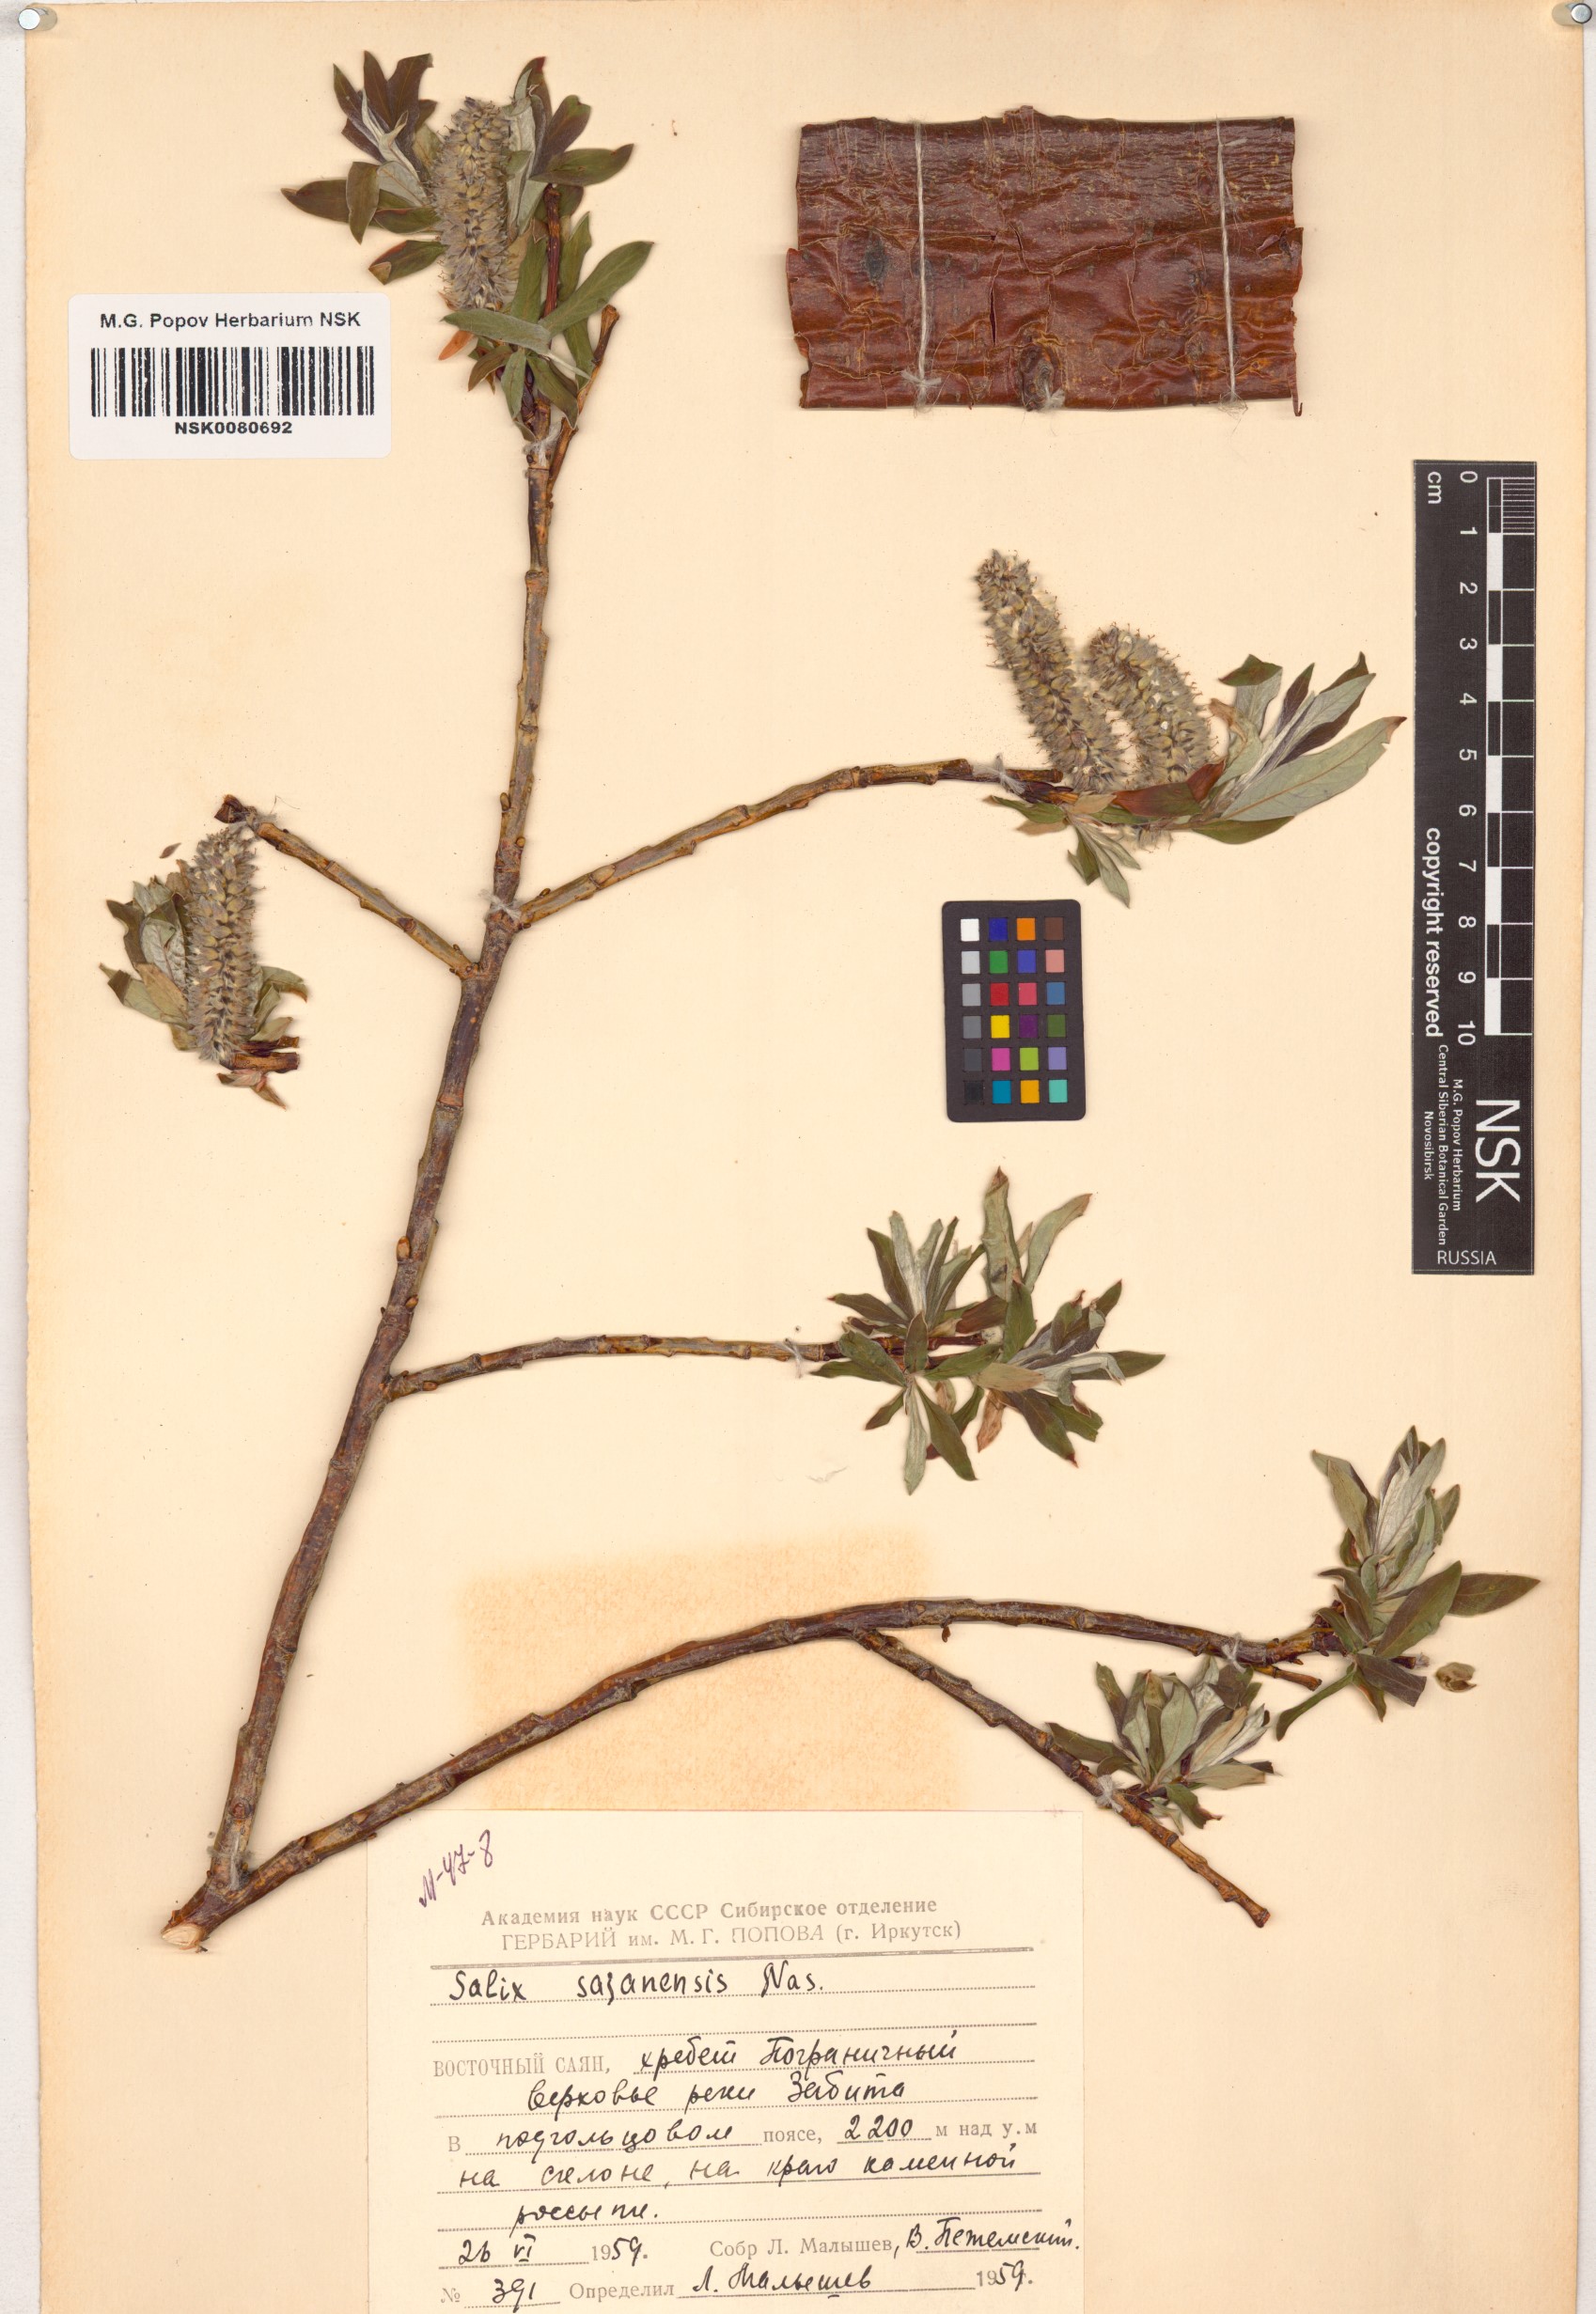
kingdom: Plantae
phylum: Tracheophyta
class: Magnoliopsida
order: Malpighiales
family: Salicaceae
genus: Salix
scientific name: Salix sajanensis
